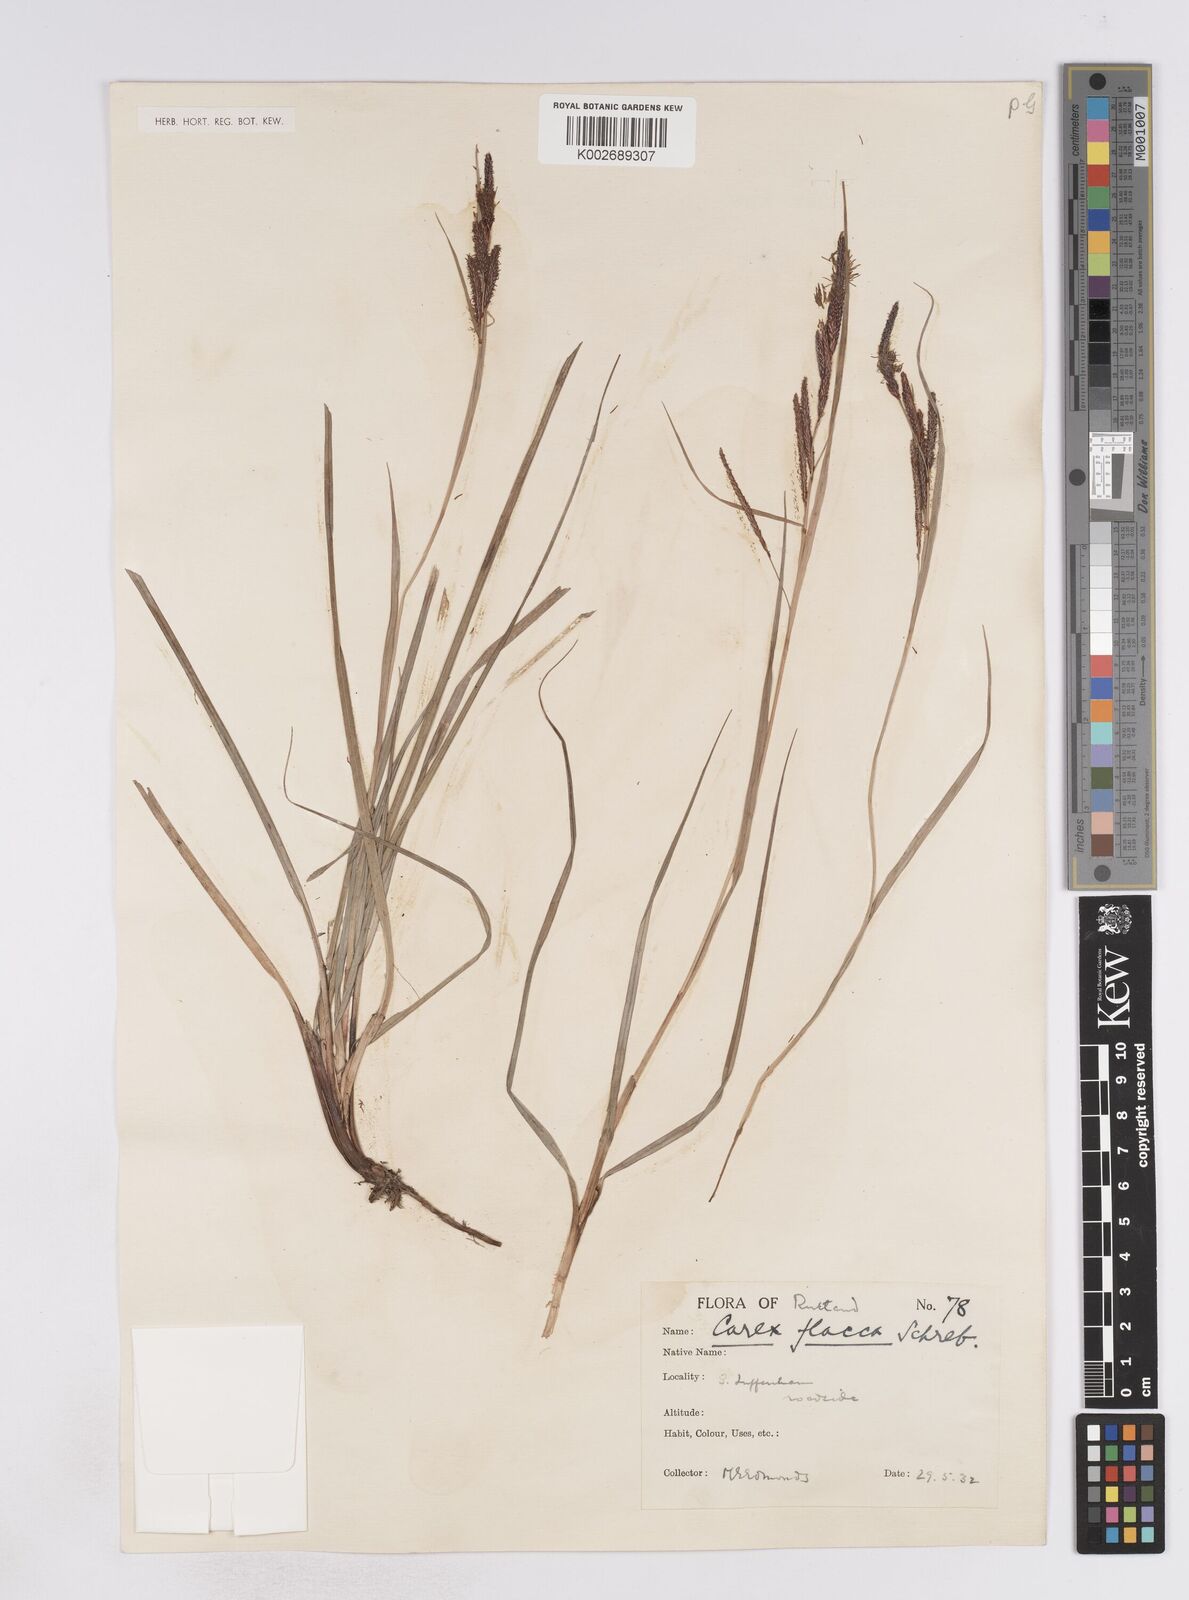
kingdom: Plantae
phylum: Tracheophyta
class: Liliopsida
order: Poales
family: Cyperaceae
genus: Carex
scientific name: Carex flacca
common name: Glaucous sedge
